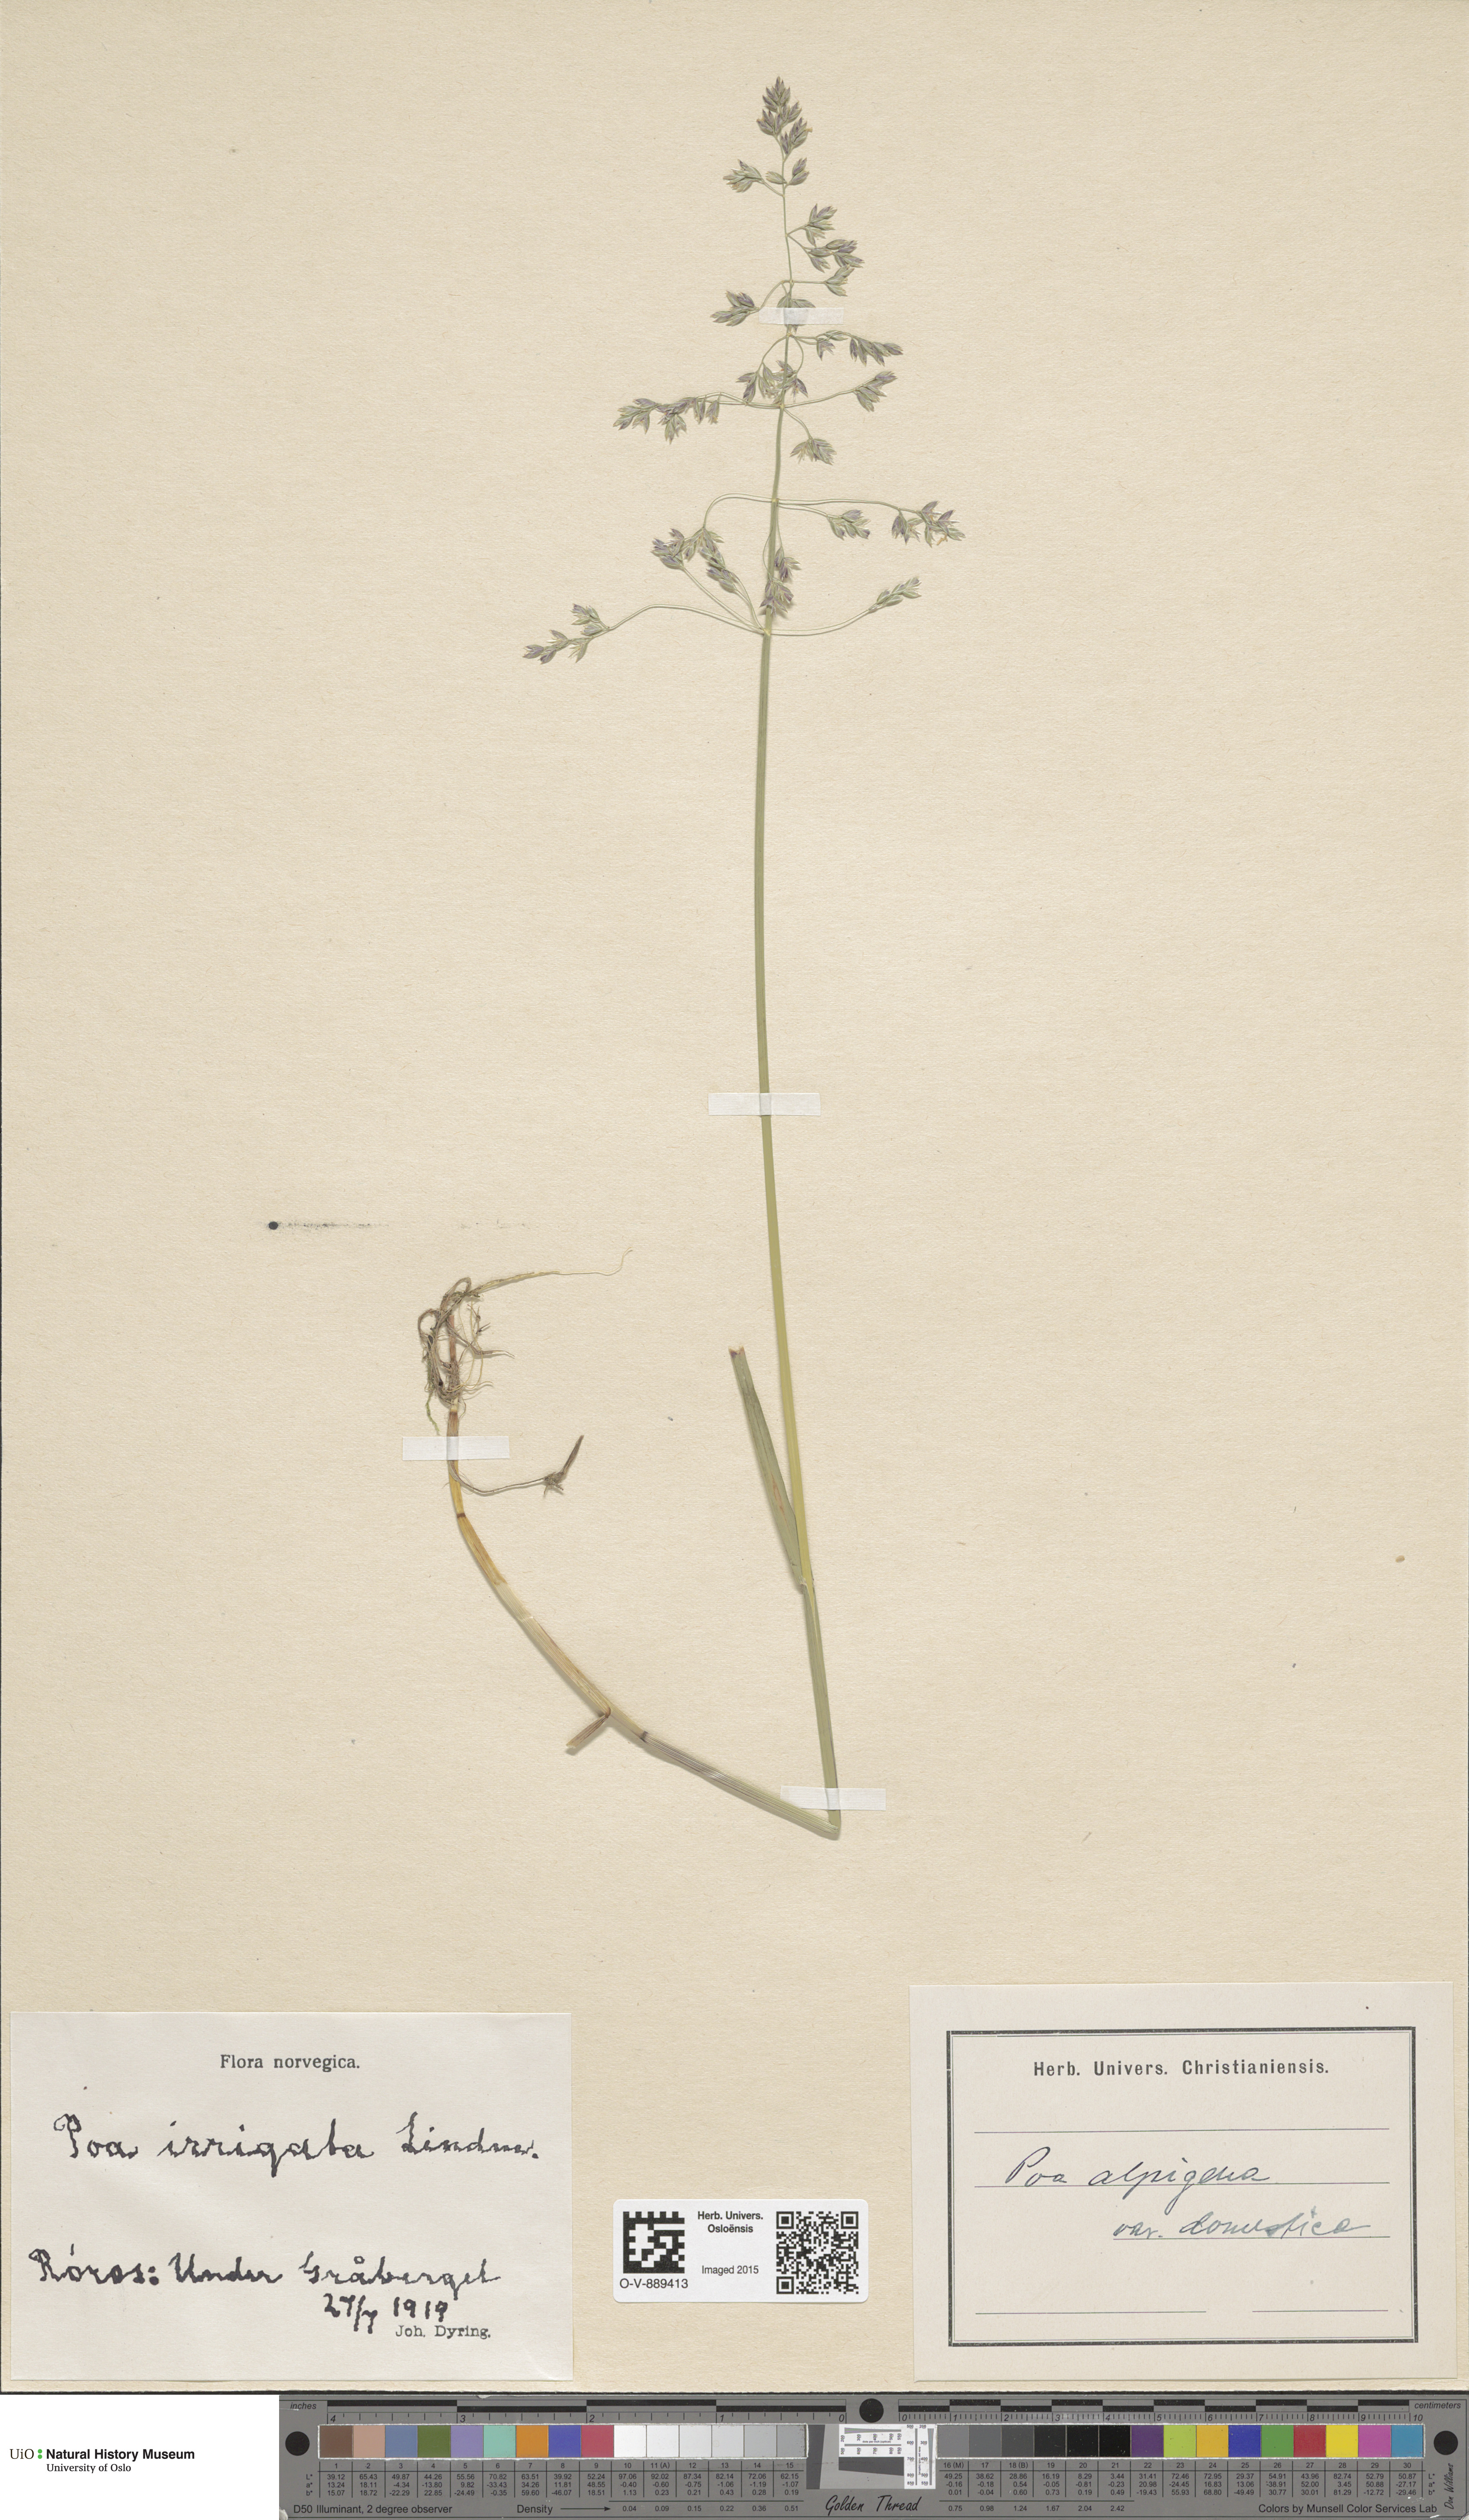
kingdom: Plantae
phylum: Tracheophyta
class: Liliopsida
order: Poales
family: Poaceae
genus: Poa
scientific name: Poa pratensis
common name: Kentucky bluegrass
